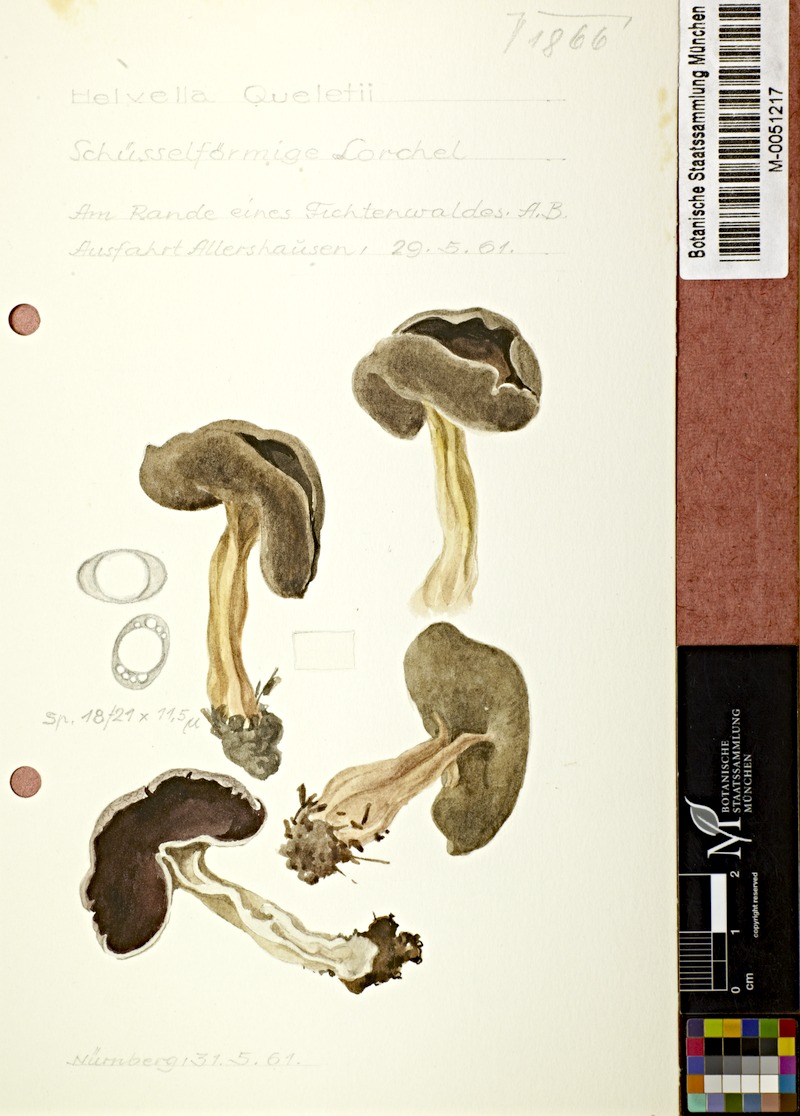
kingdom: Fungi
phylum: Ascomycota
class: Pezizomycetes
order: Pezizales
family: Helvellaceae
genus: Paxina
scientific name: Paxina queletii
